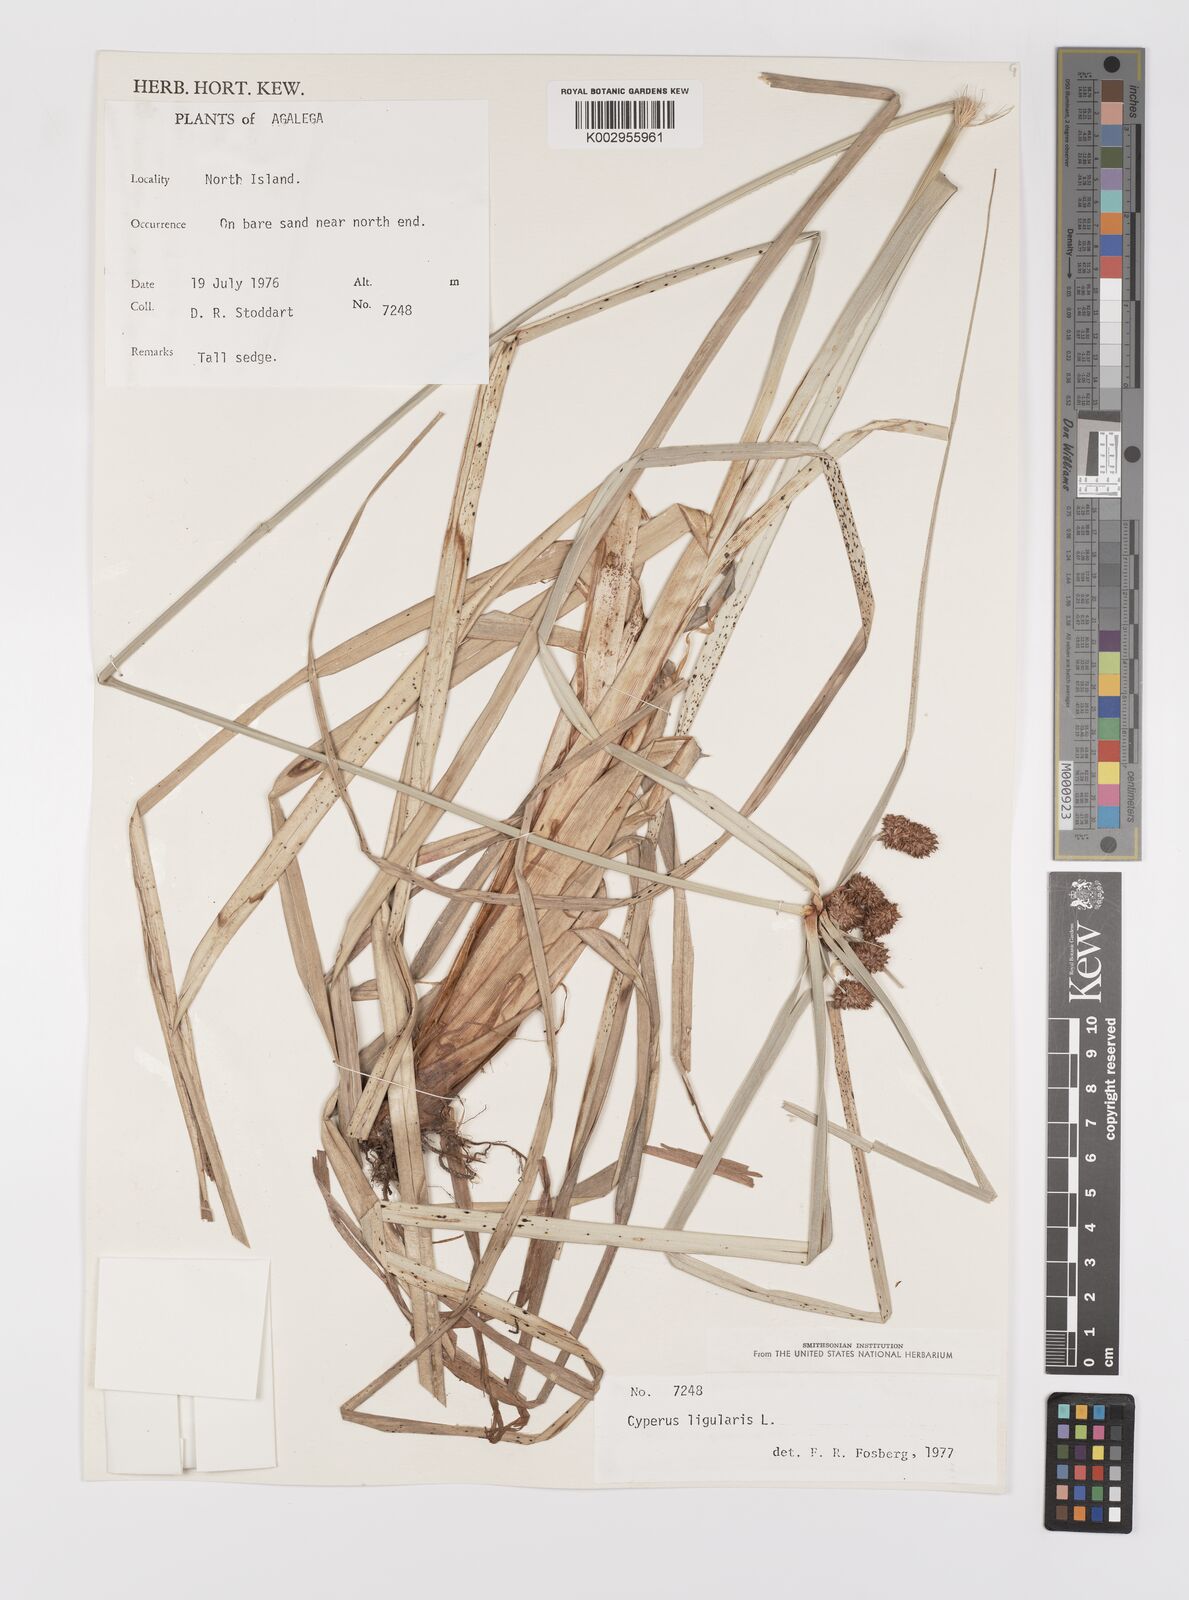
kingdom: Plantae
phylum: Tracheophyta
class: Liliopsida
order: Poales
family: Cyperaceae
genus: Cyperus
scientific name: Cyperus ligularis
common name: Swamp flat sedge
